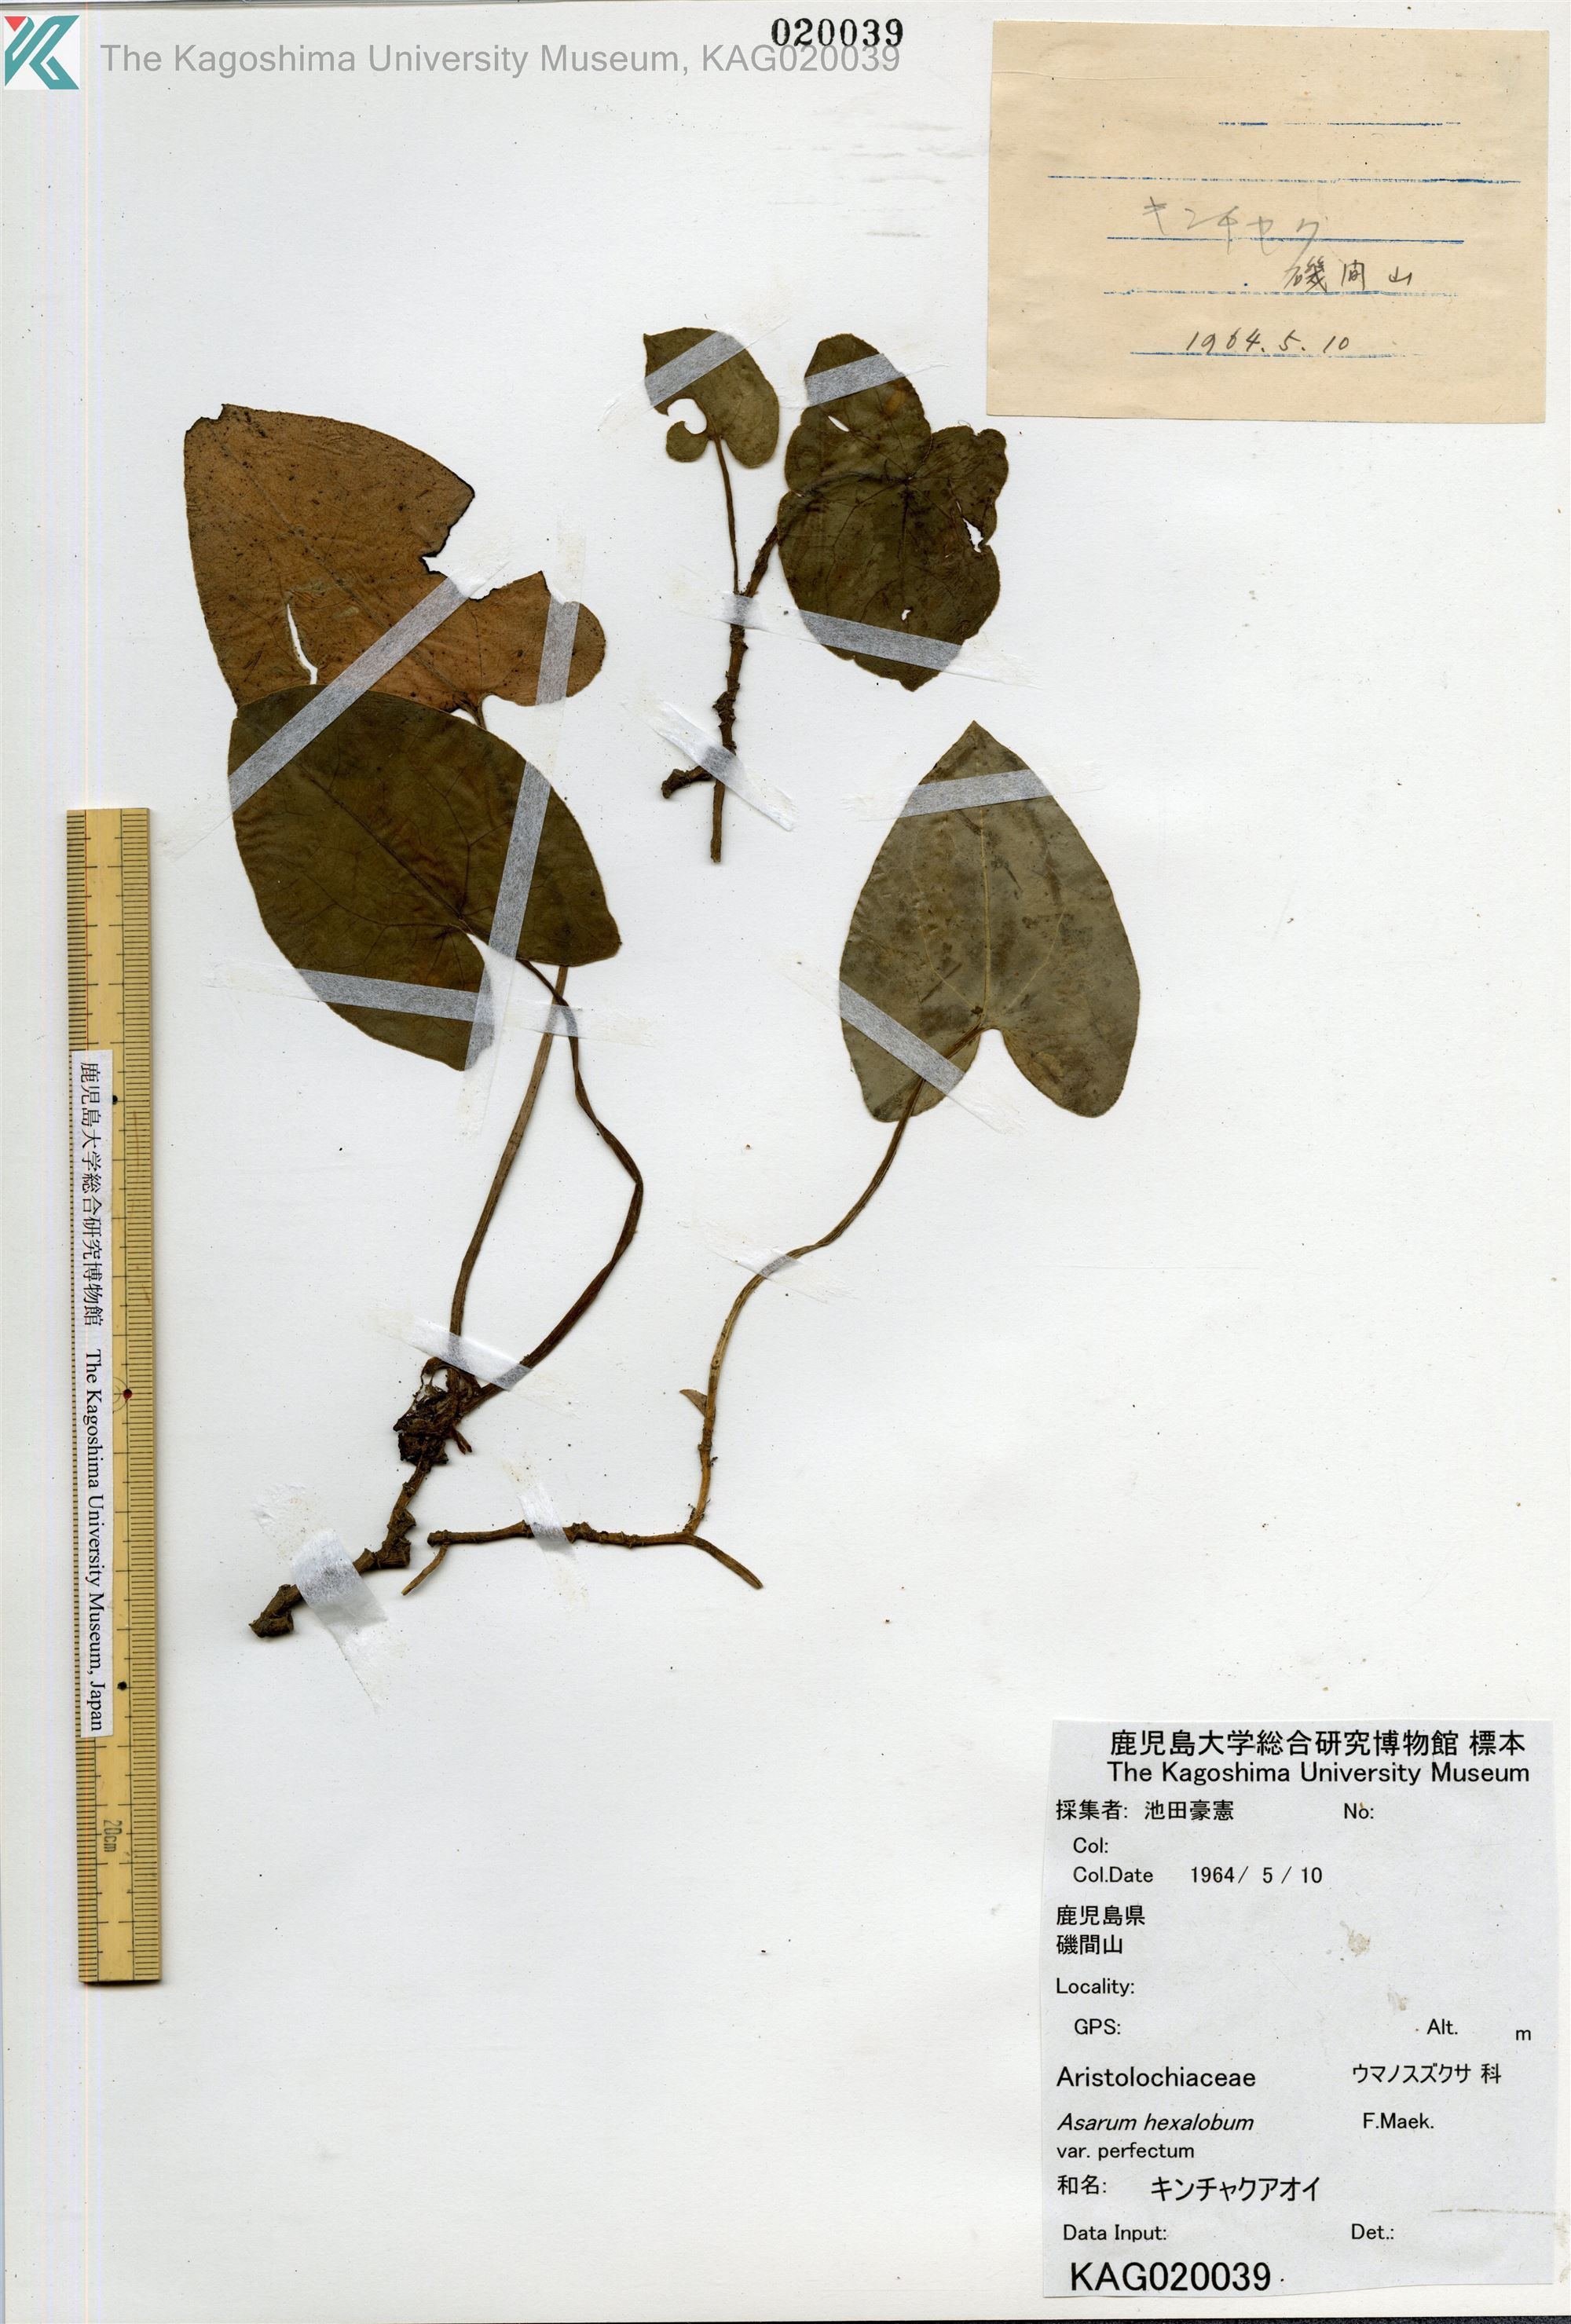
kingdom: Plantae
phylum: Tracheophyta
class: Magnoliopsida
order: Piperales
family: Aristolochiaceae
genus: Asarum
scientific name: Asarum hexalobum
